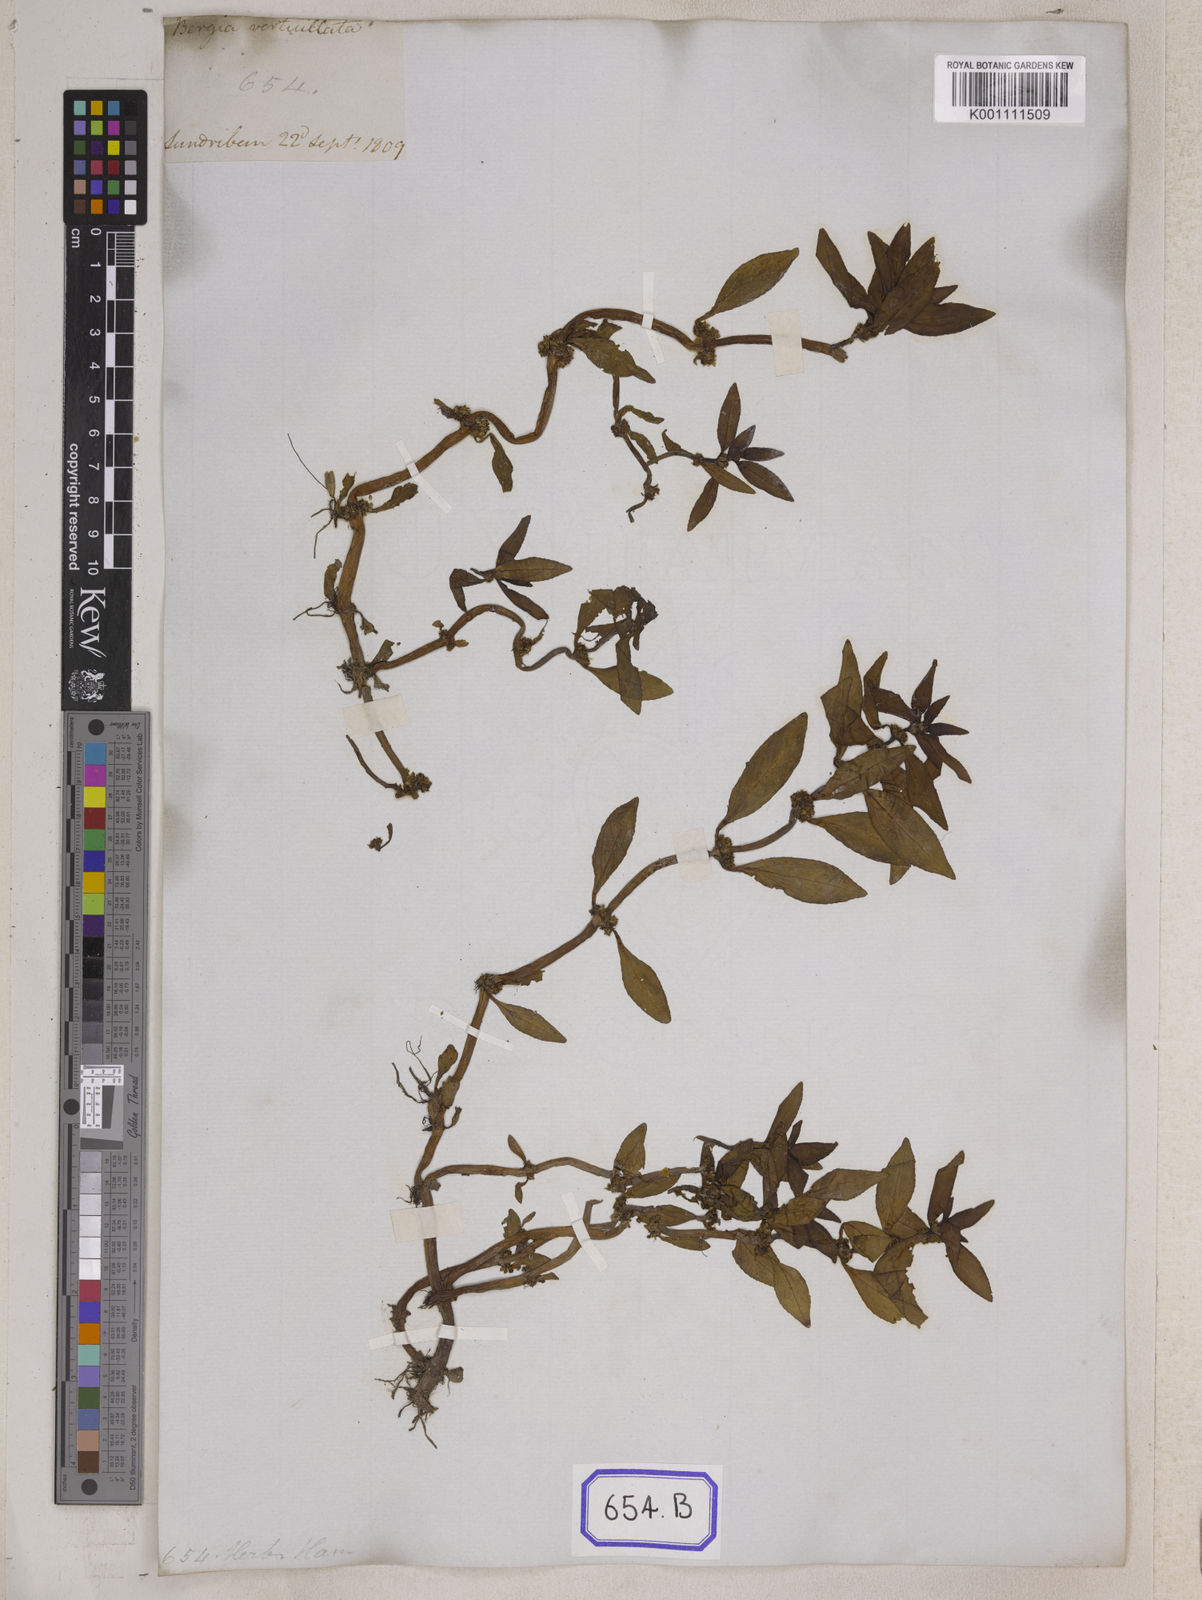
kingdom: Plantae
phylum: Tracheophyta
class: Magnoliopsida
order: Malpighiales
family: Elatinaceae
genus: Bergia
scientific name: Bergia
